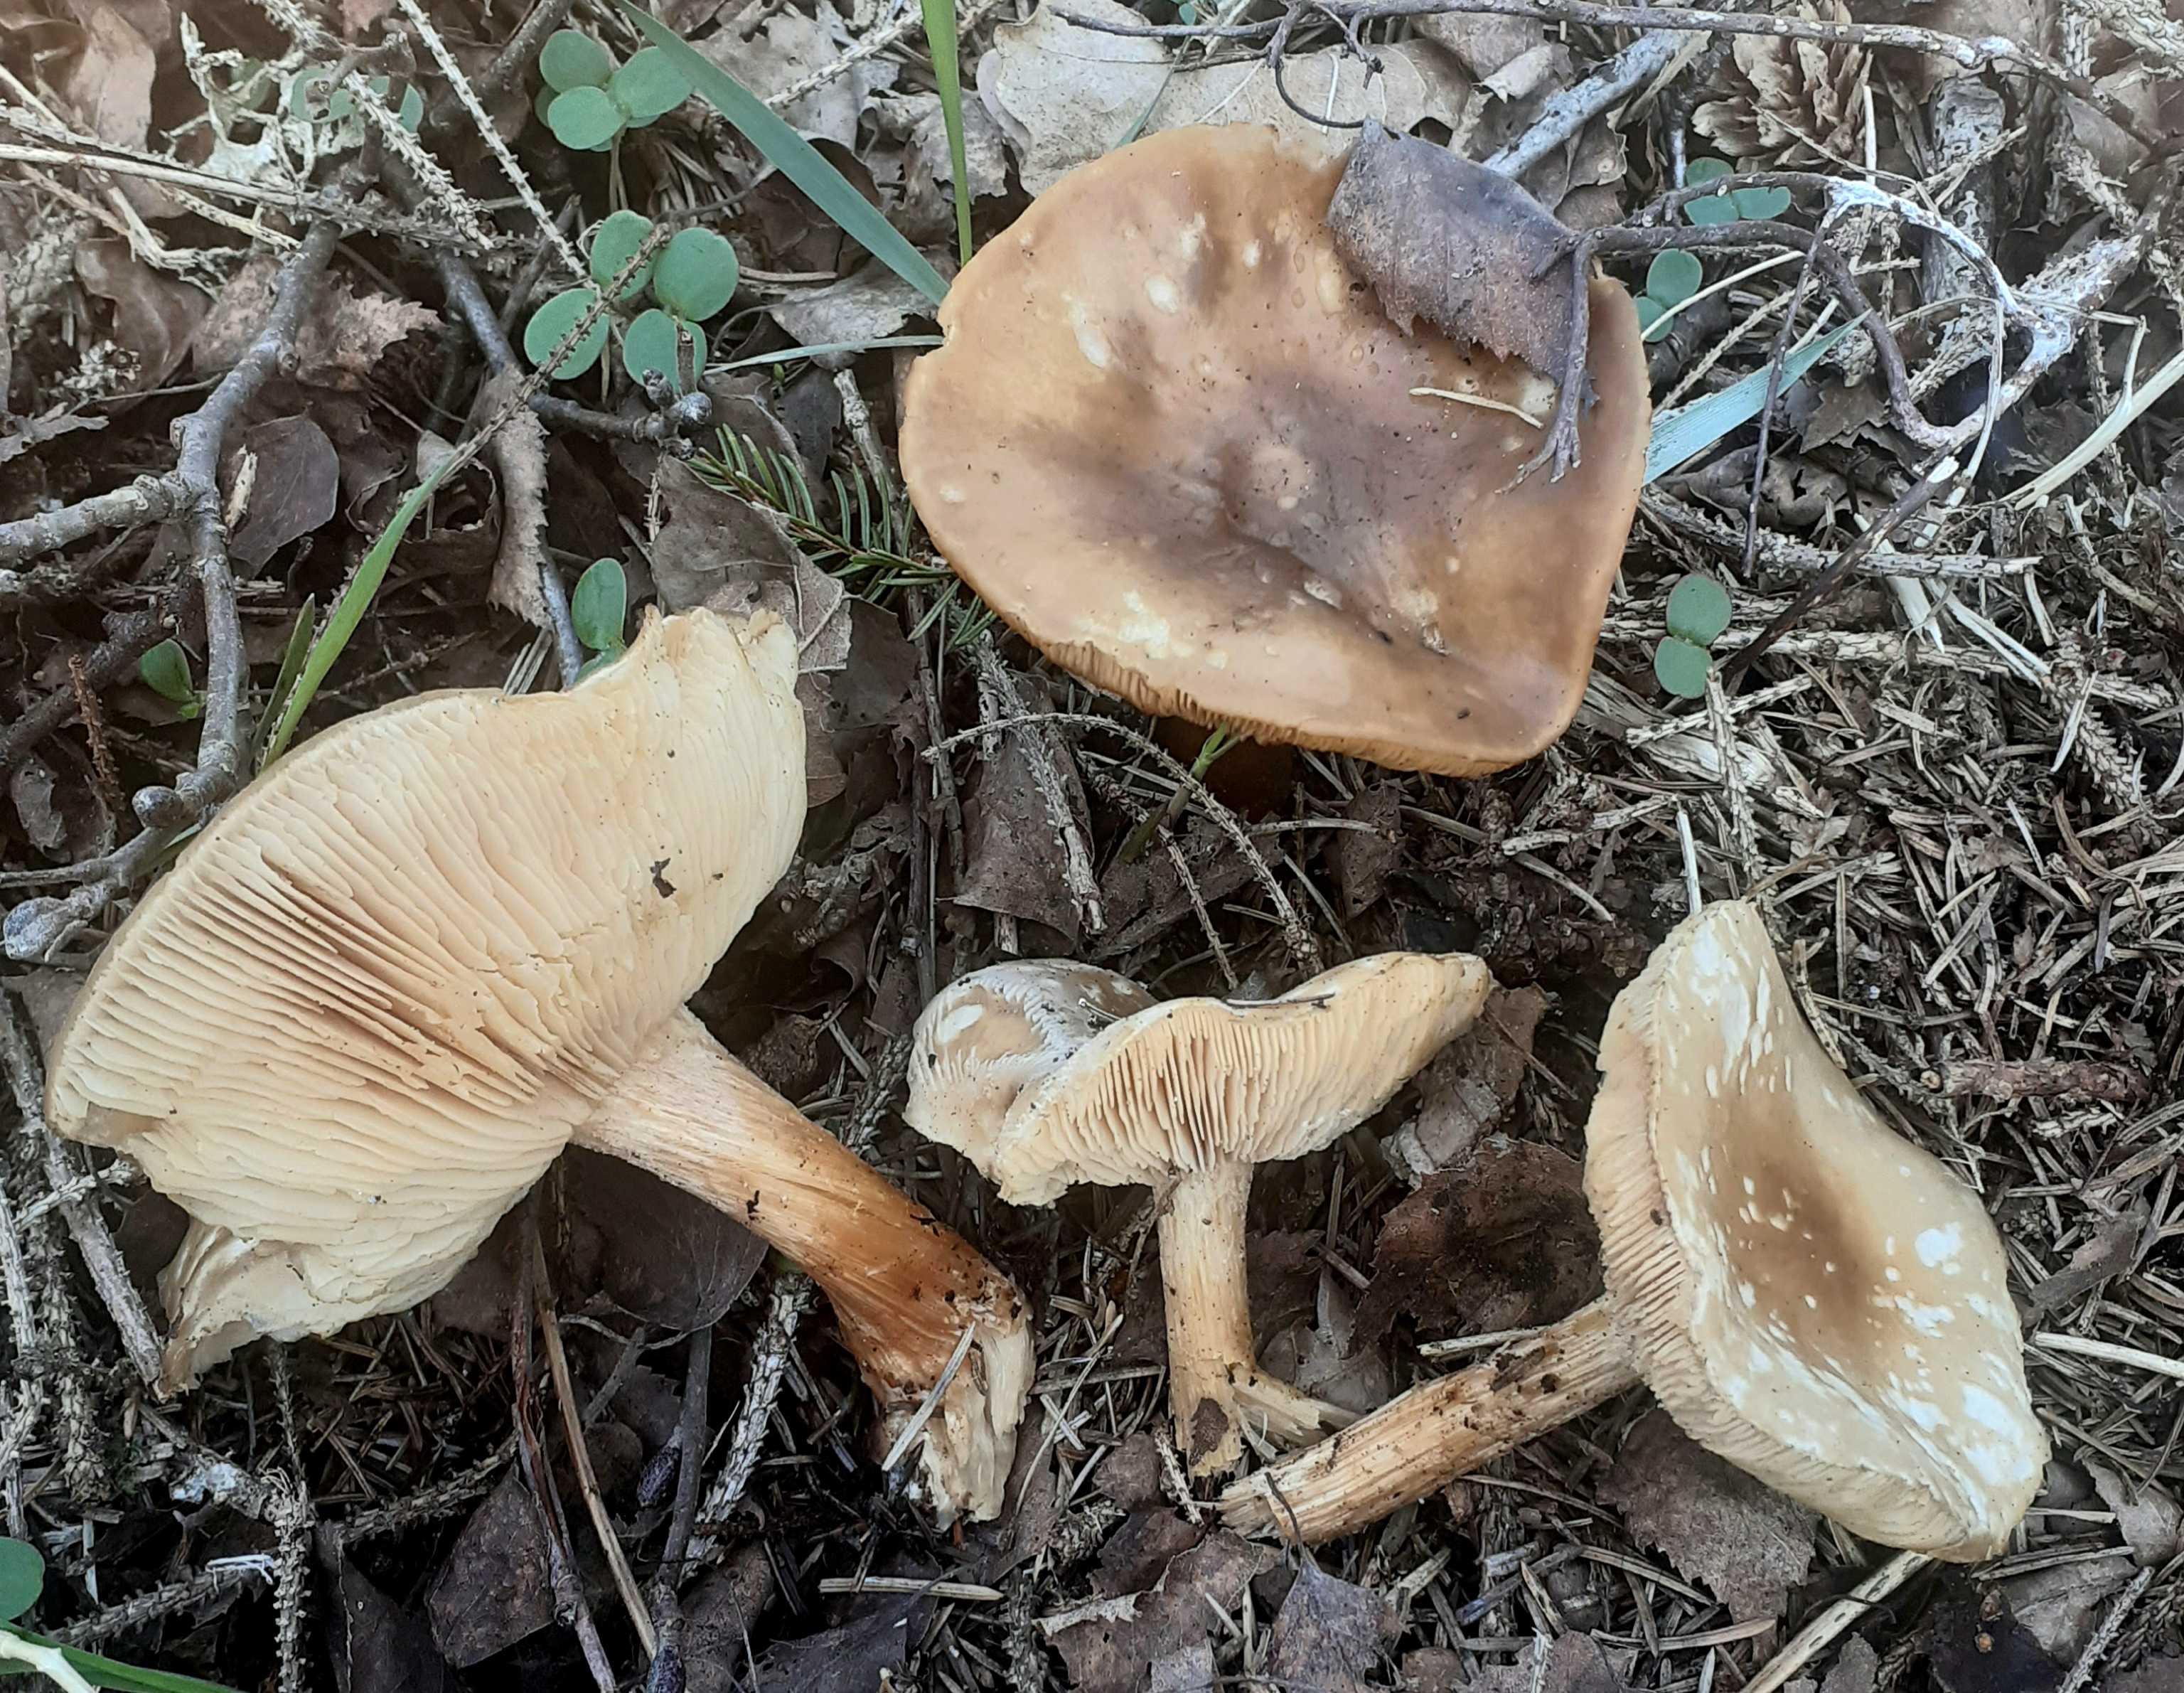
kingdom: Fungi
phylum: Basidiomycota
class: Agaricomycetes
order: Agaricales
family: Tricholomataceae
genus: Melanoleuca
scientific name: Melanoleuca cognata
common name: gyldengrå munkehat
